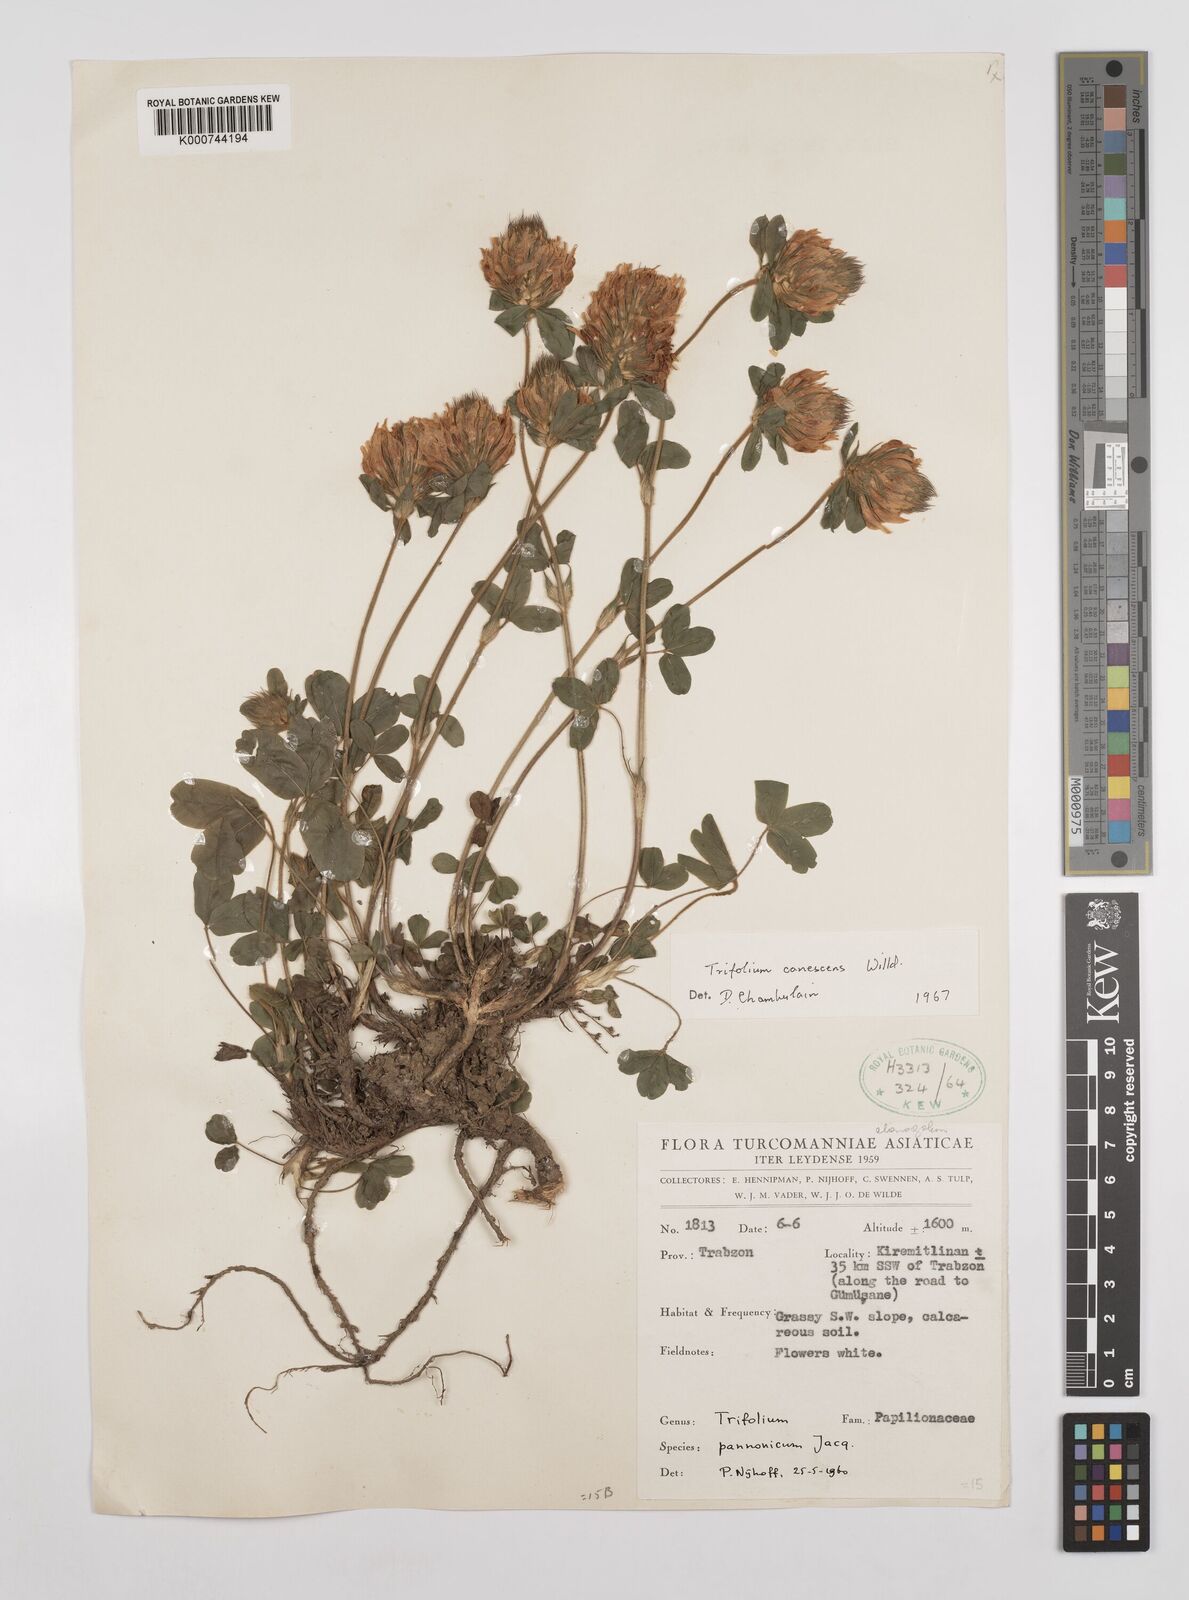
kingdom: Plantae
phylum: Tracheophyta
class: Magnoliopsida
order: Fabales
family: Fabaceae
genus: Trifolium
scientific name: Trifolium canescens
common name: Graying clover
